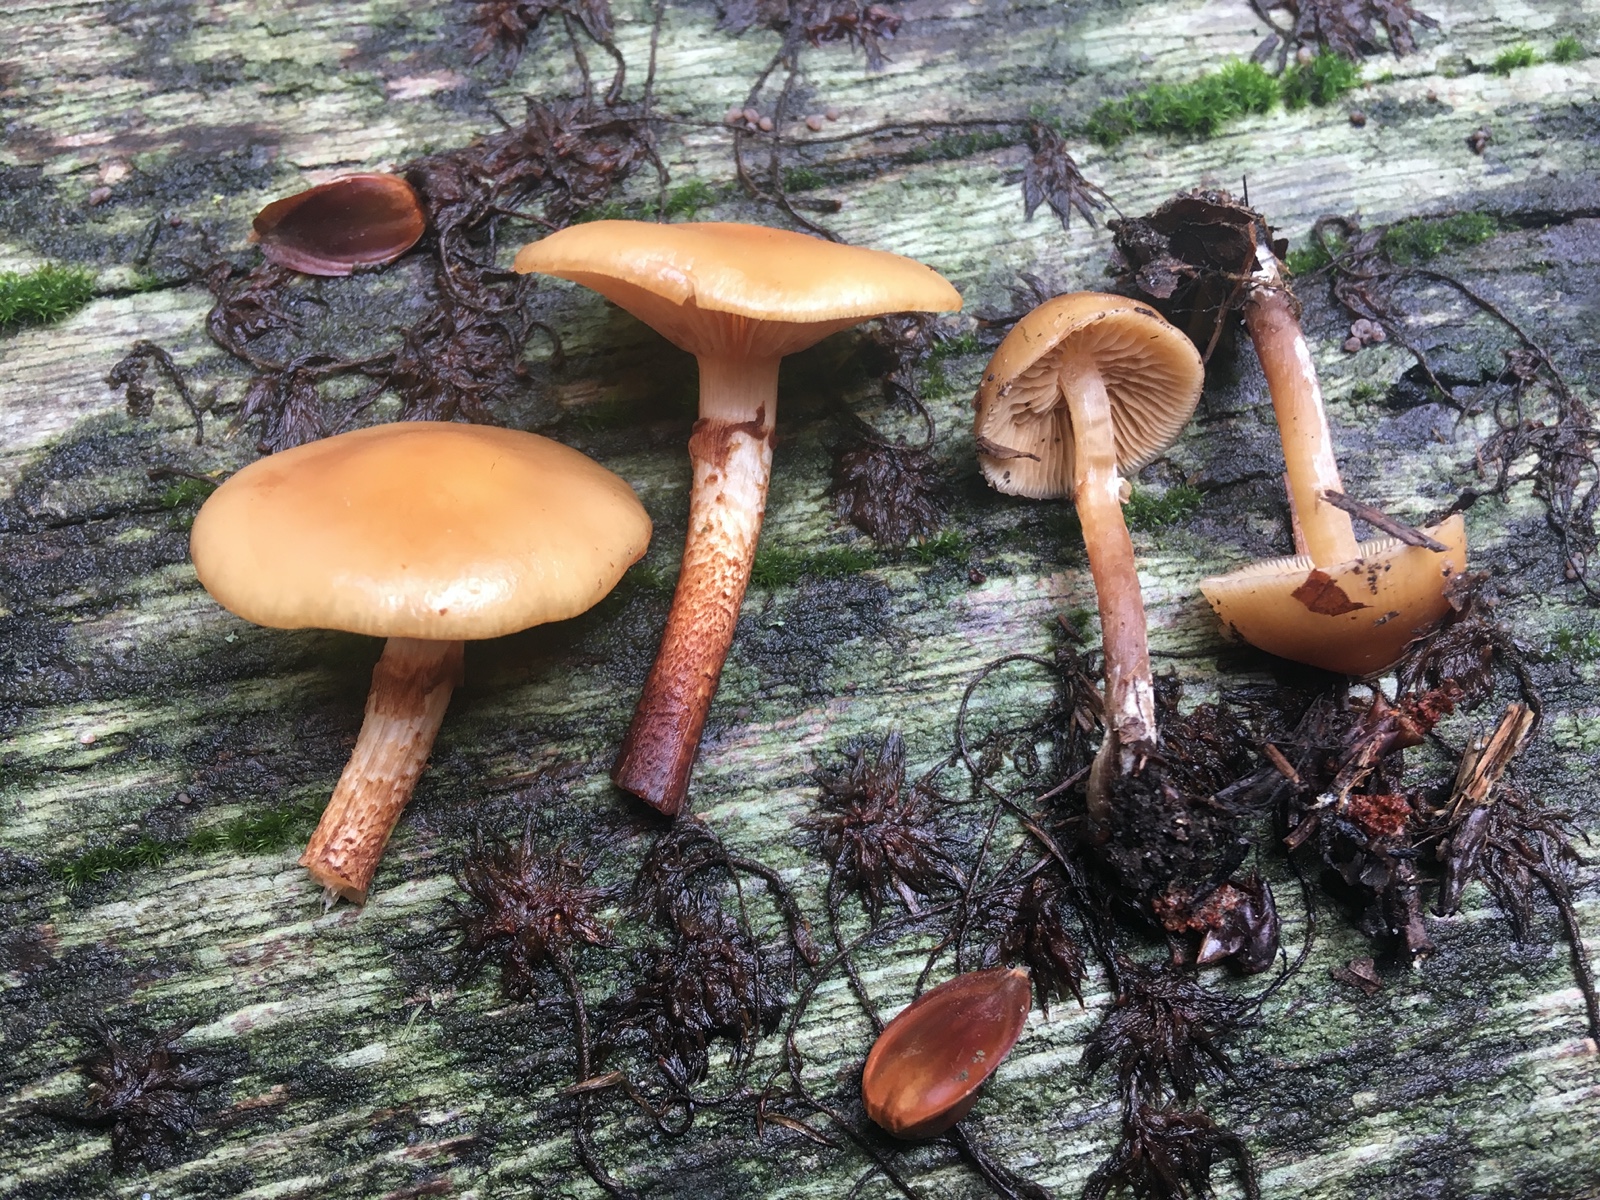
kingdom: Fungi
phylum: Basidiomycota
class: Agaricomycetes
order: Agaricales
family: Strophariaceae
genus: Kuehneromyces
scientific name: Kuehneromyces mutabilis
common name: foranderlig skælhat
